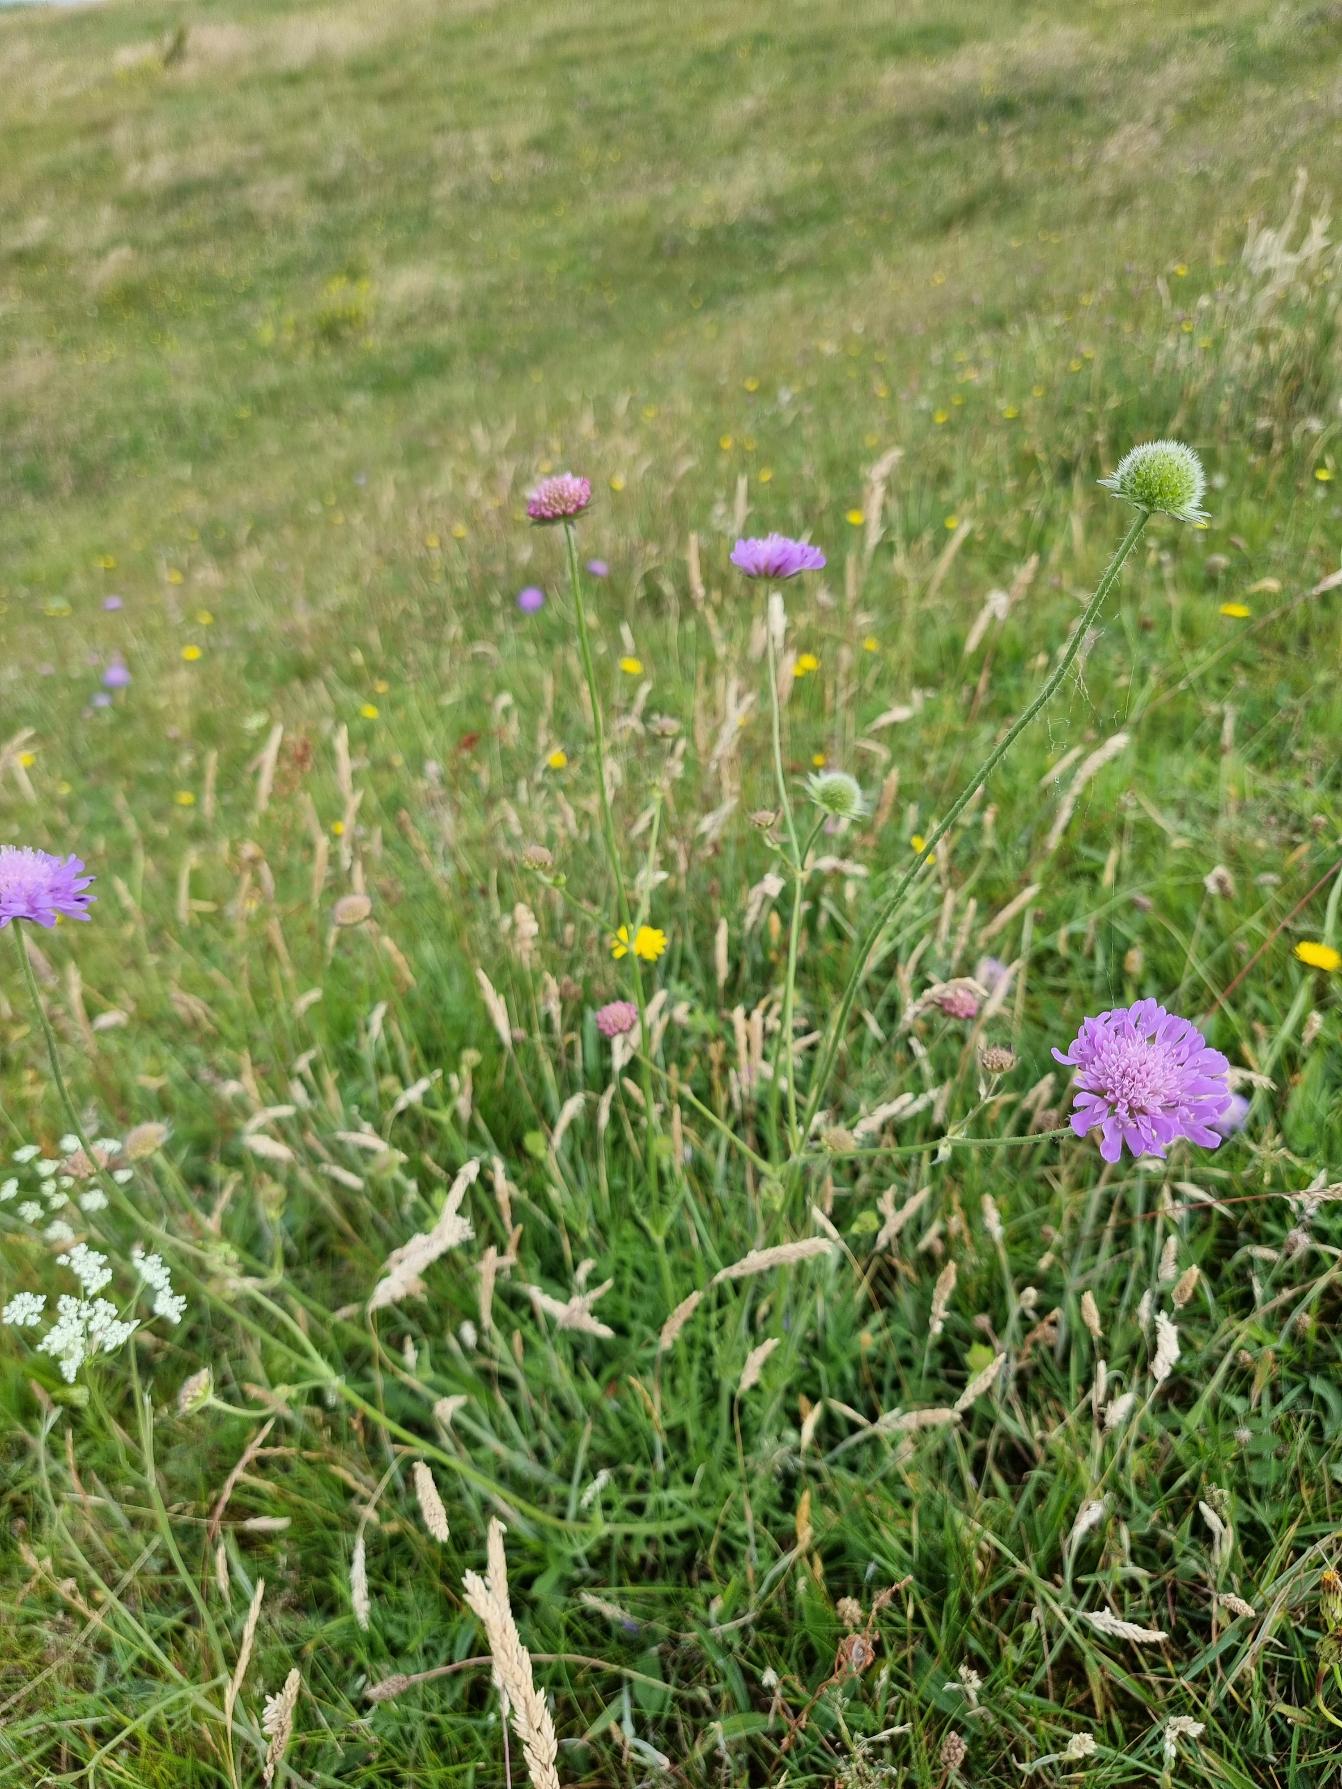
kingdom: Plantae
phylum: Tracheophyta
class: Magnoliopsida
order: Dipsacales
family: Caprifoliaceae
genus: Knautia
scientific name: Knautia arvensis
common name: Blåhat
